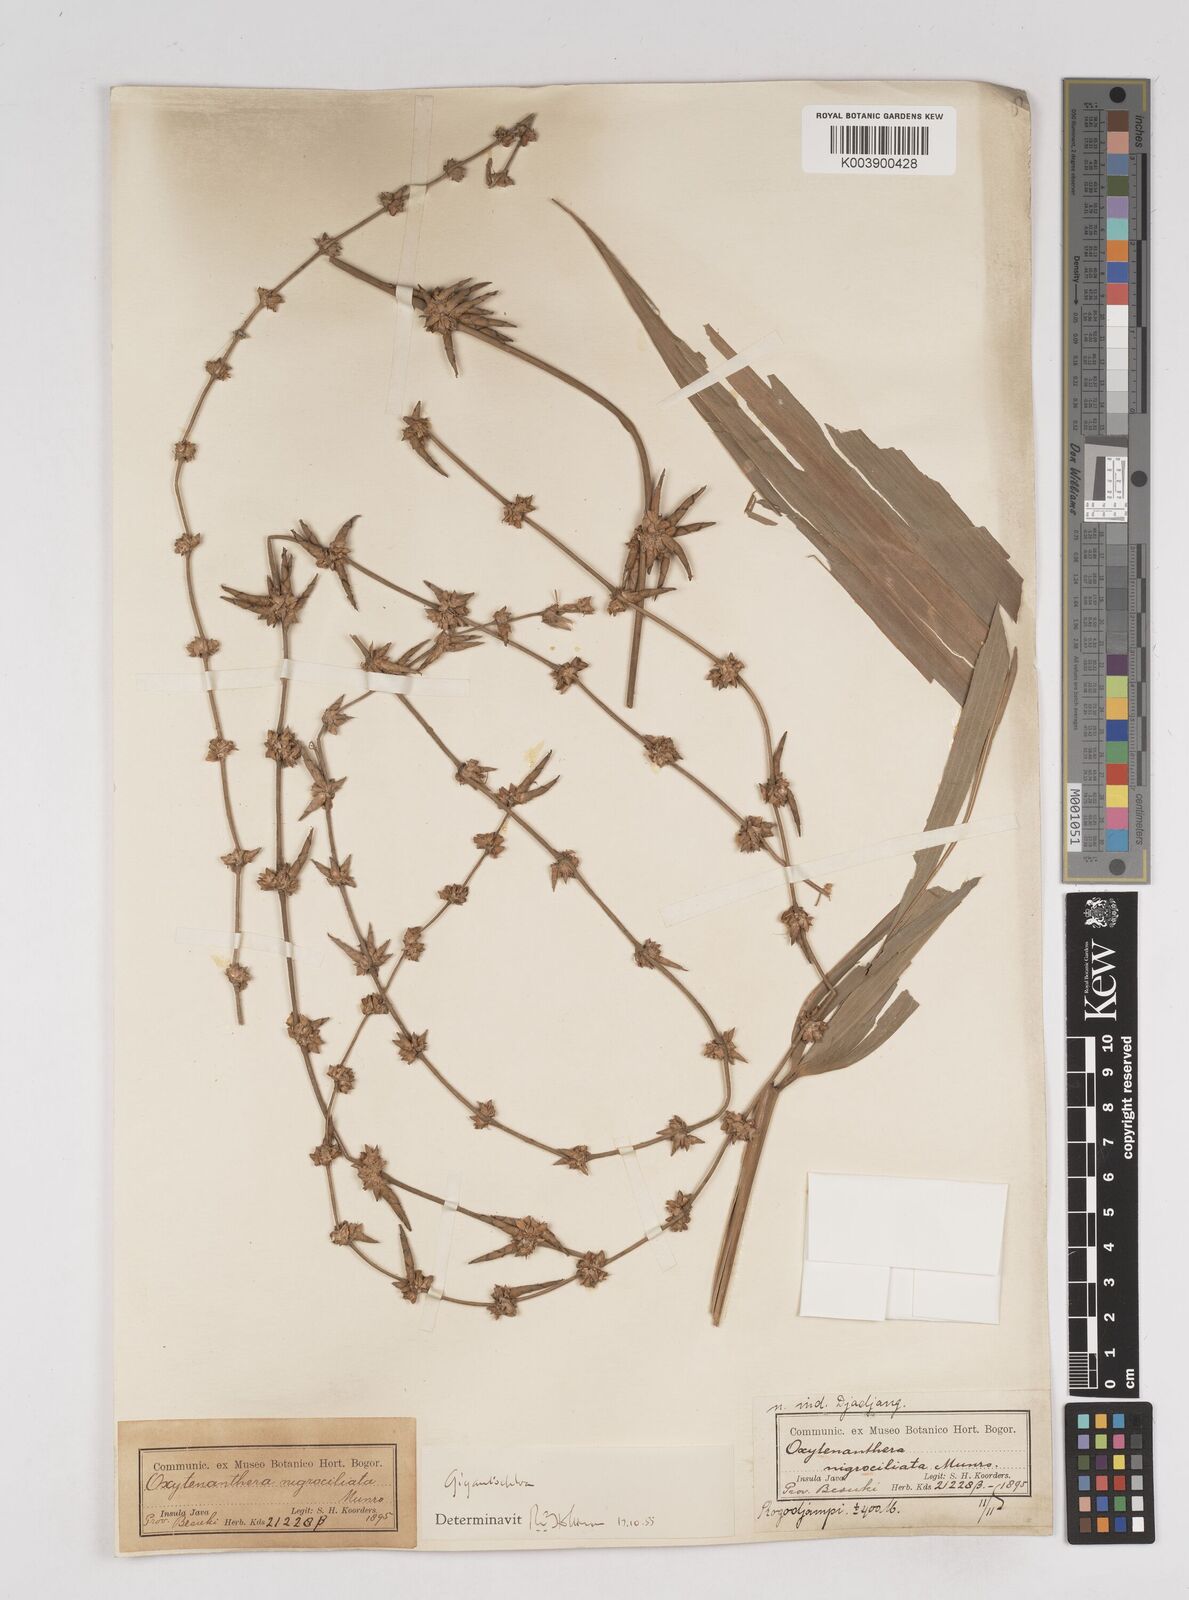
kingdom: Plantae
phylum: Tracheophyta
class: Liliopsida
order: Poales
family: Poaceae
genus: Gigantochloa
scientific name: Gigantochloa nigrociliata
